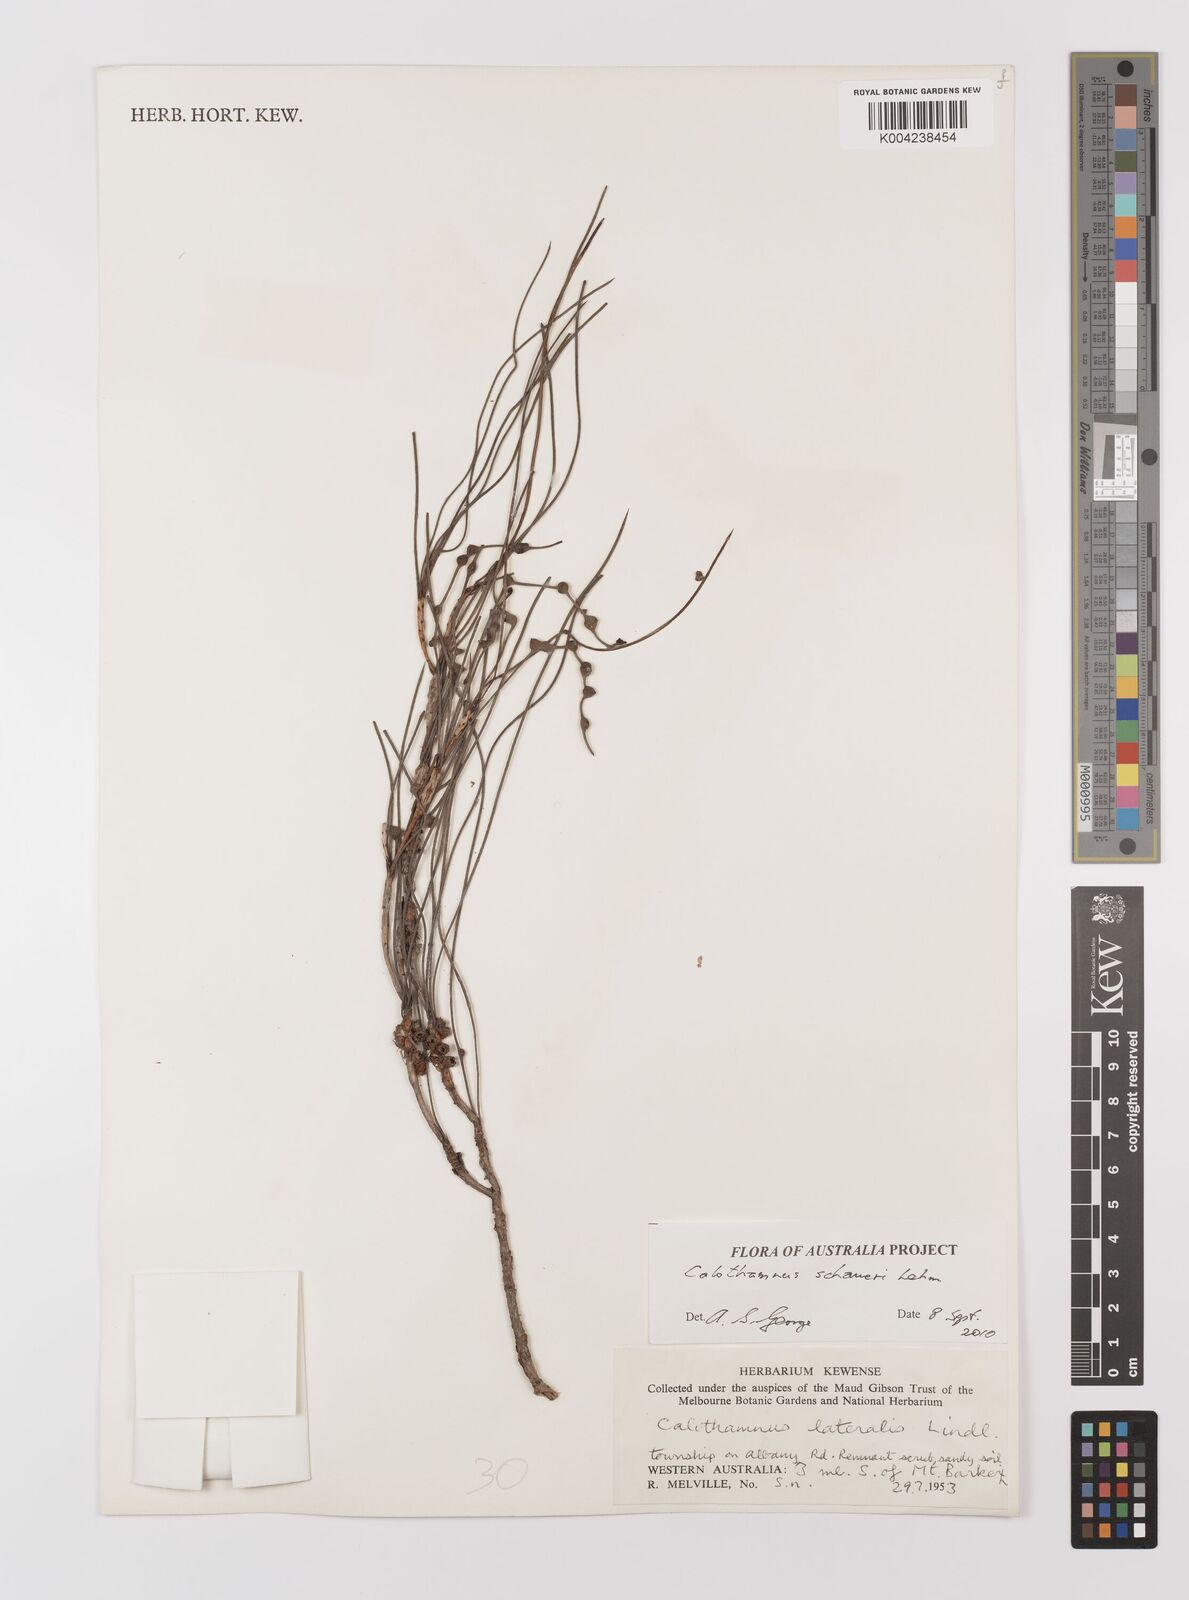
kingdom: Plantae
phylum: Tracheophyta
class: Magnoliopsida
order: Myrtales
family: Myrtaceae
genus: Melaleuca
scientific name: Melaleuca schaueri
